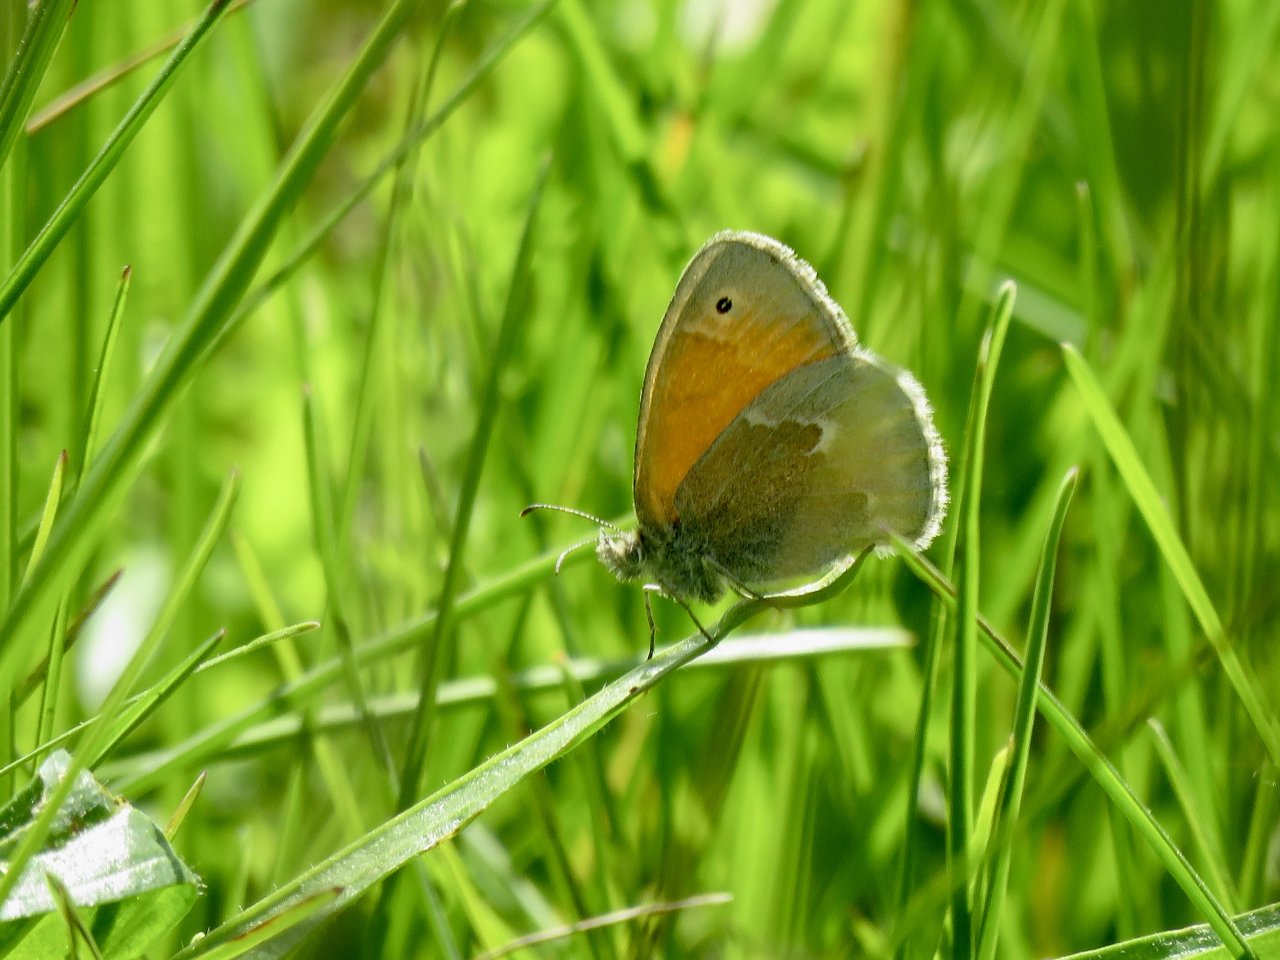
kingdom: Animalia
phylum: Arthropoda
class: Insecta
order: Lepidoptera
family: Nymphalidae
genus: Coenonympha
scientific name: Coenonympha tullia
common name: Large Heath
